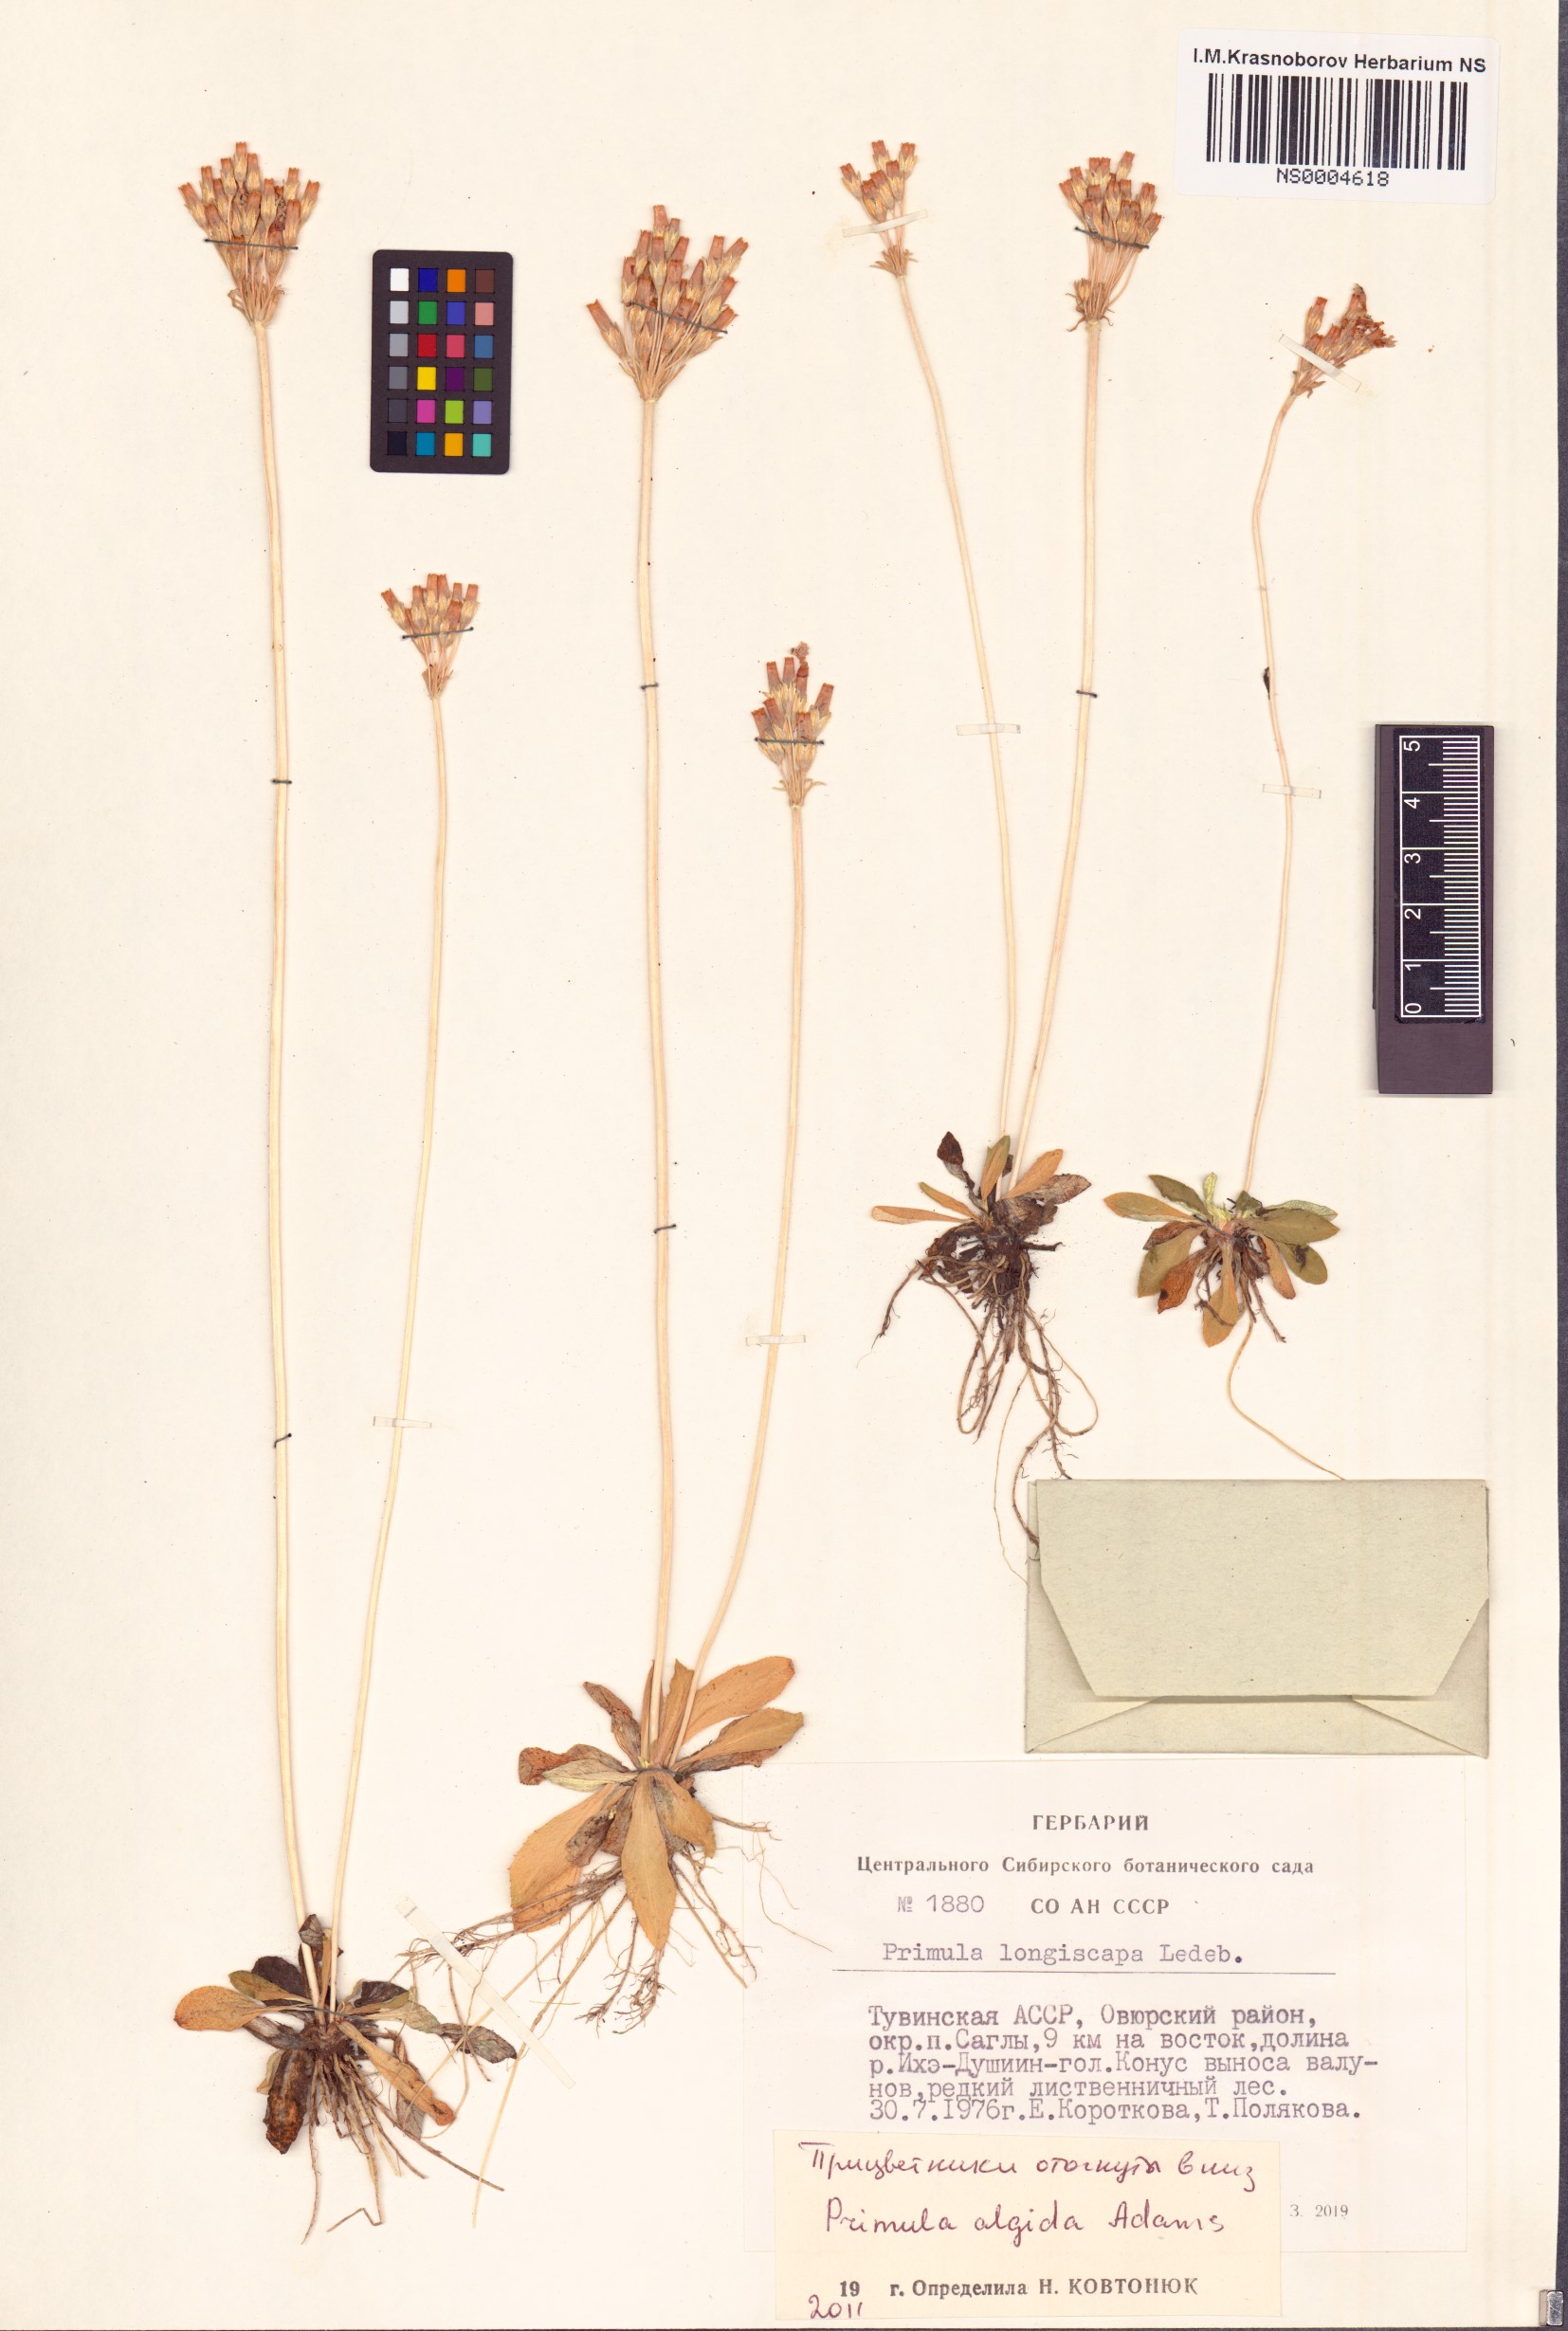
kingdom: Plantae
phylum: Tracheophyta
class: Magnoliopsida
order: Ericales
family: Primulaceae
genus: Primula
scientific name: Primula algida
